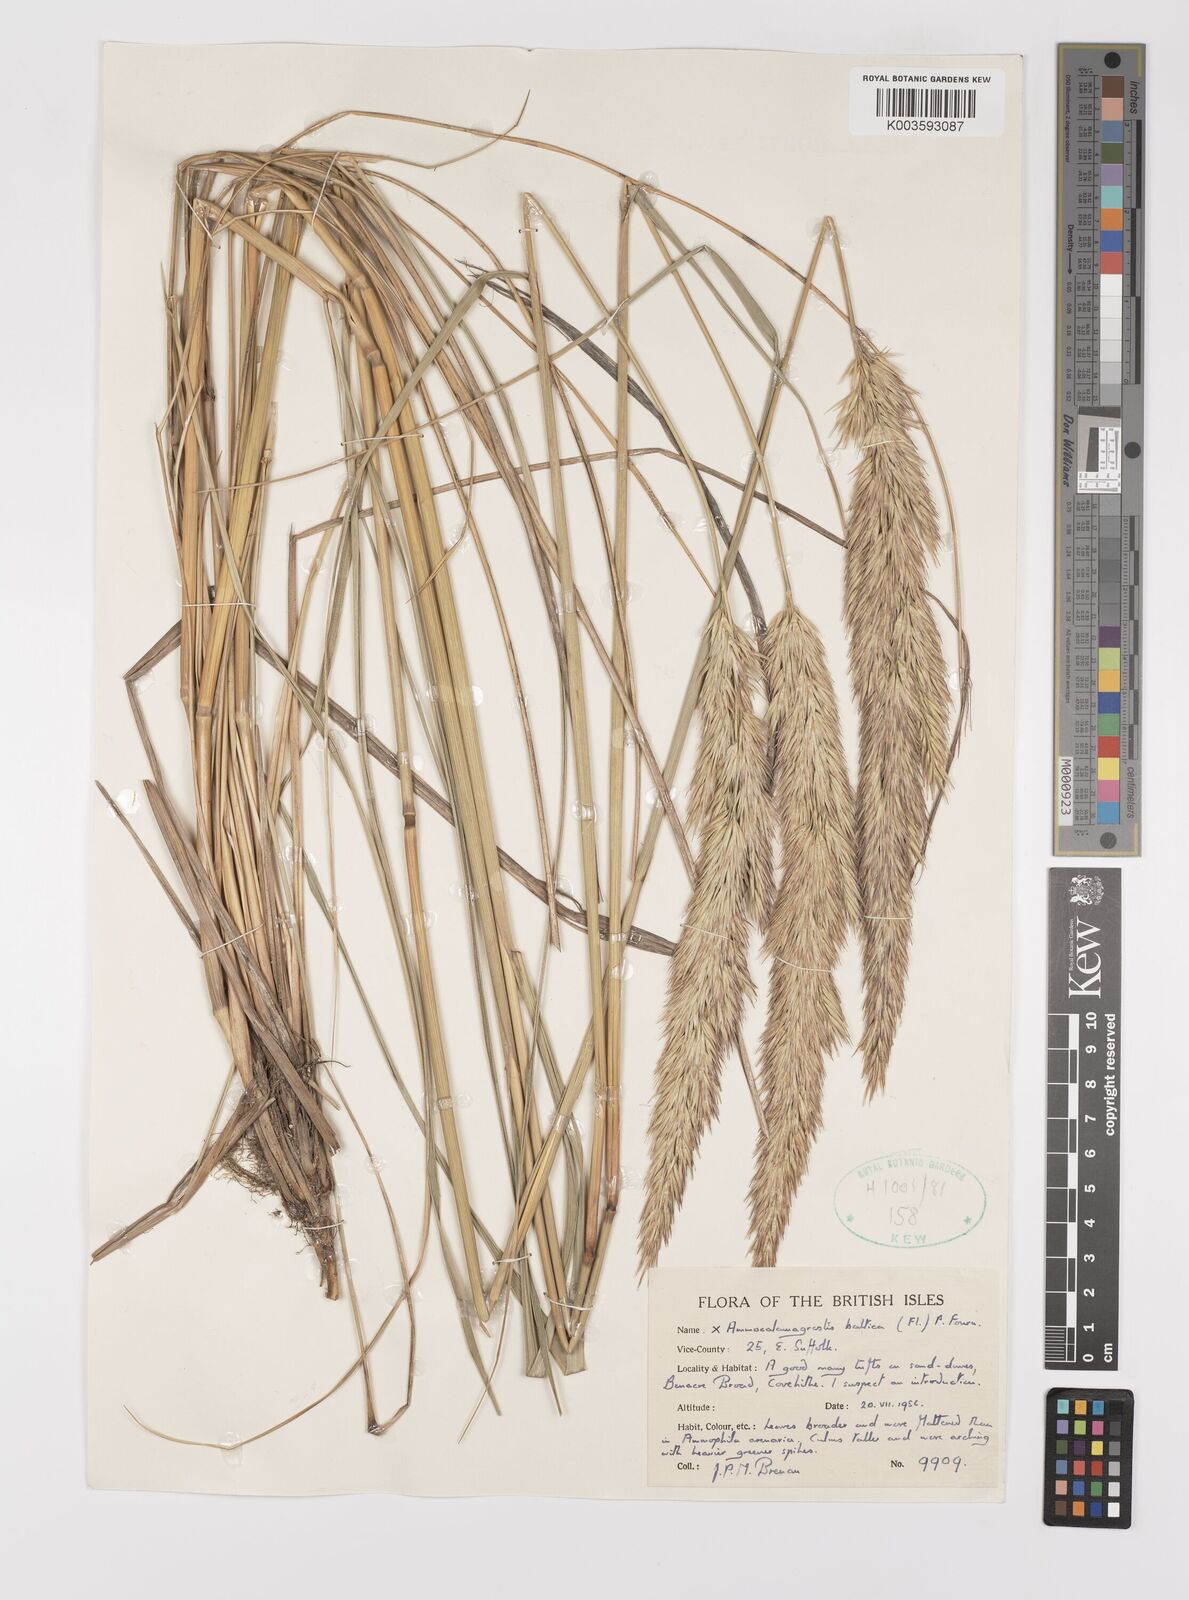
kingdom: Plantae
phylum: Tracheophyta
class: Liliopsida
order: Poales
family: Poaceae
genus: Calamagrostis
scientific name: Calamagrostis baltica
